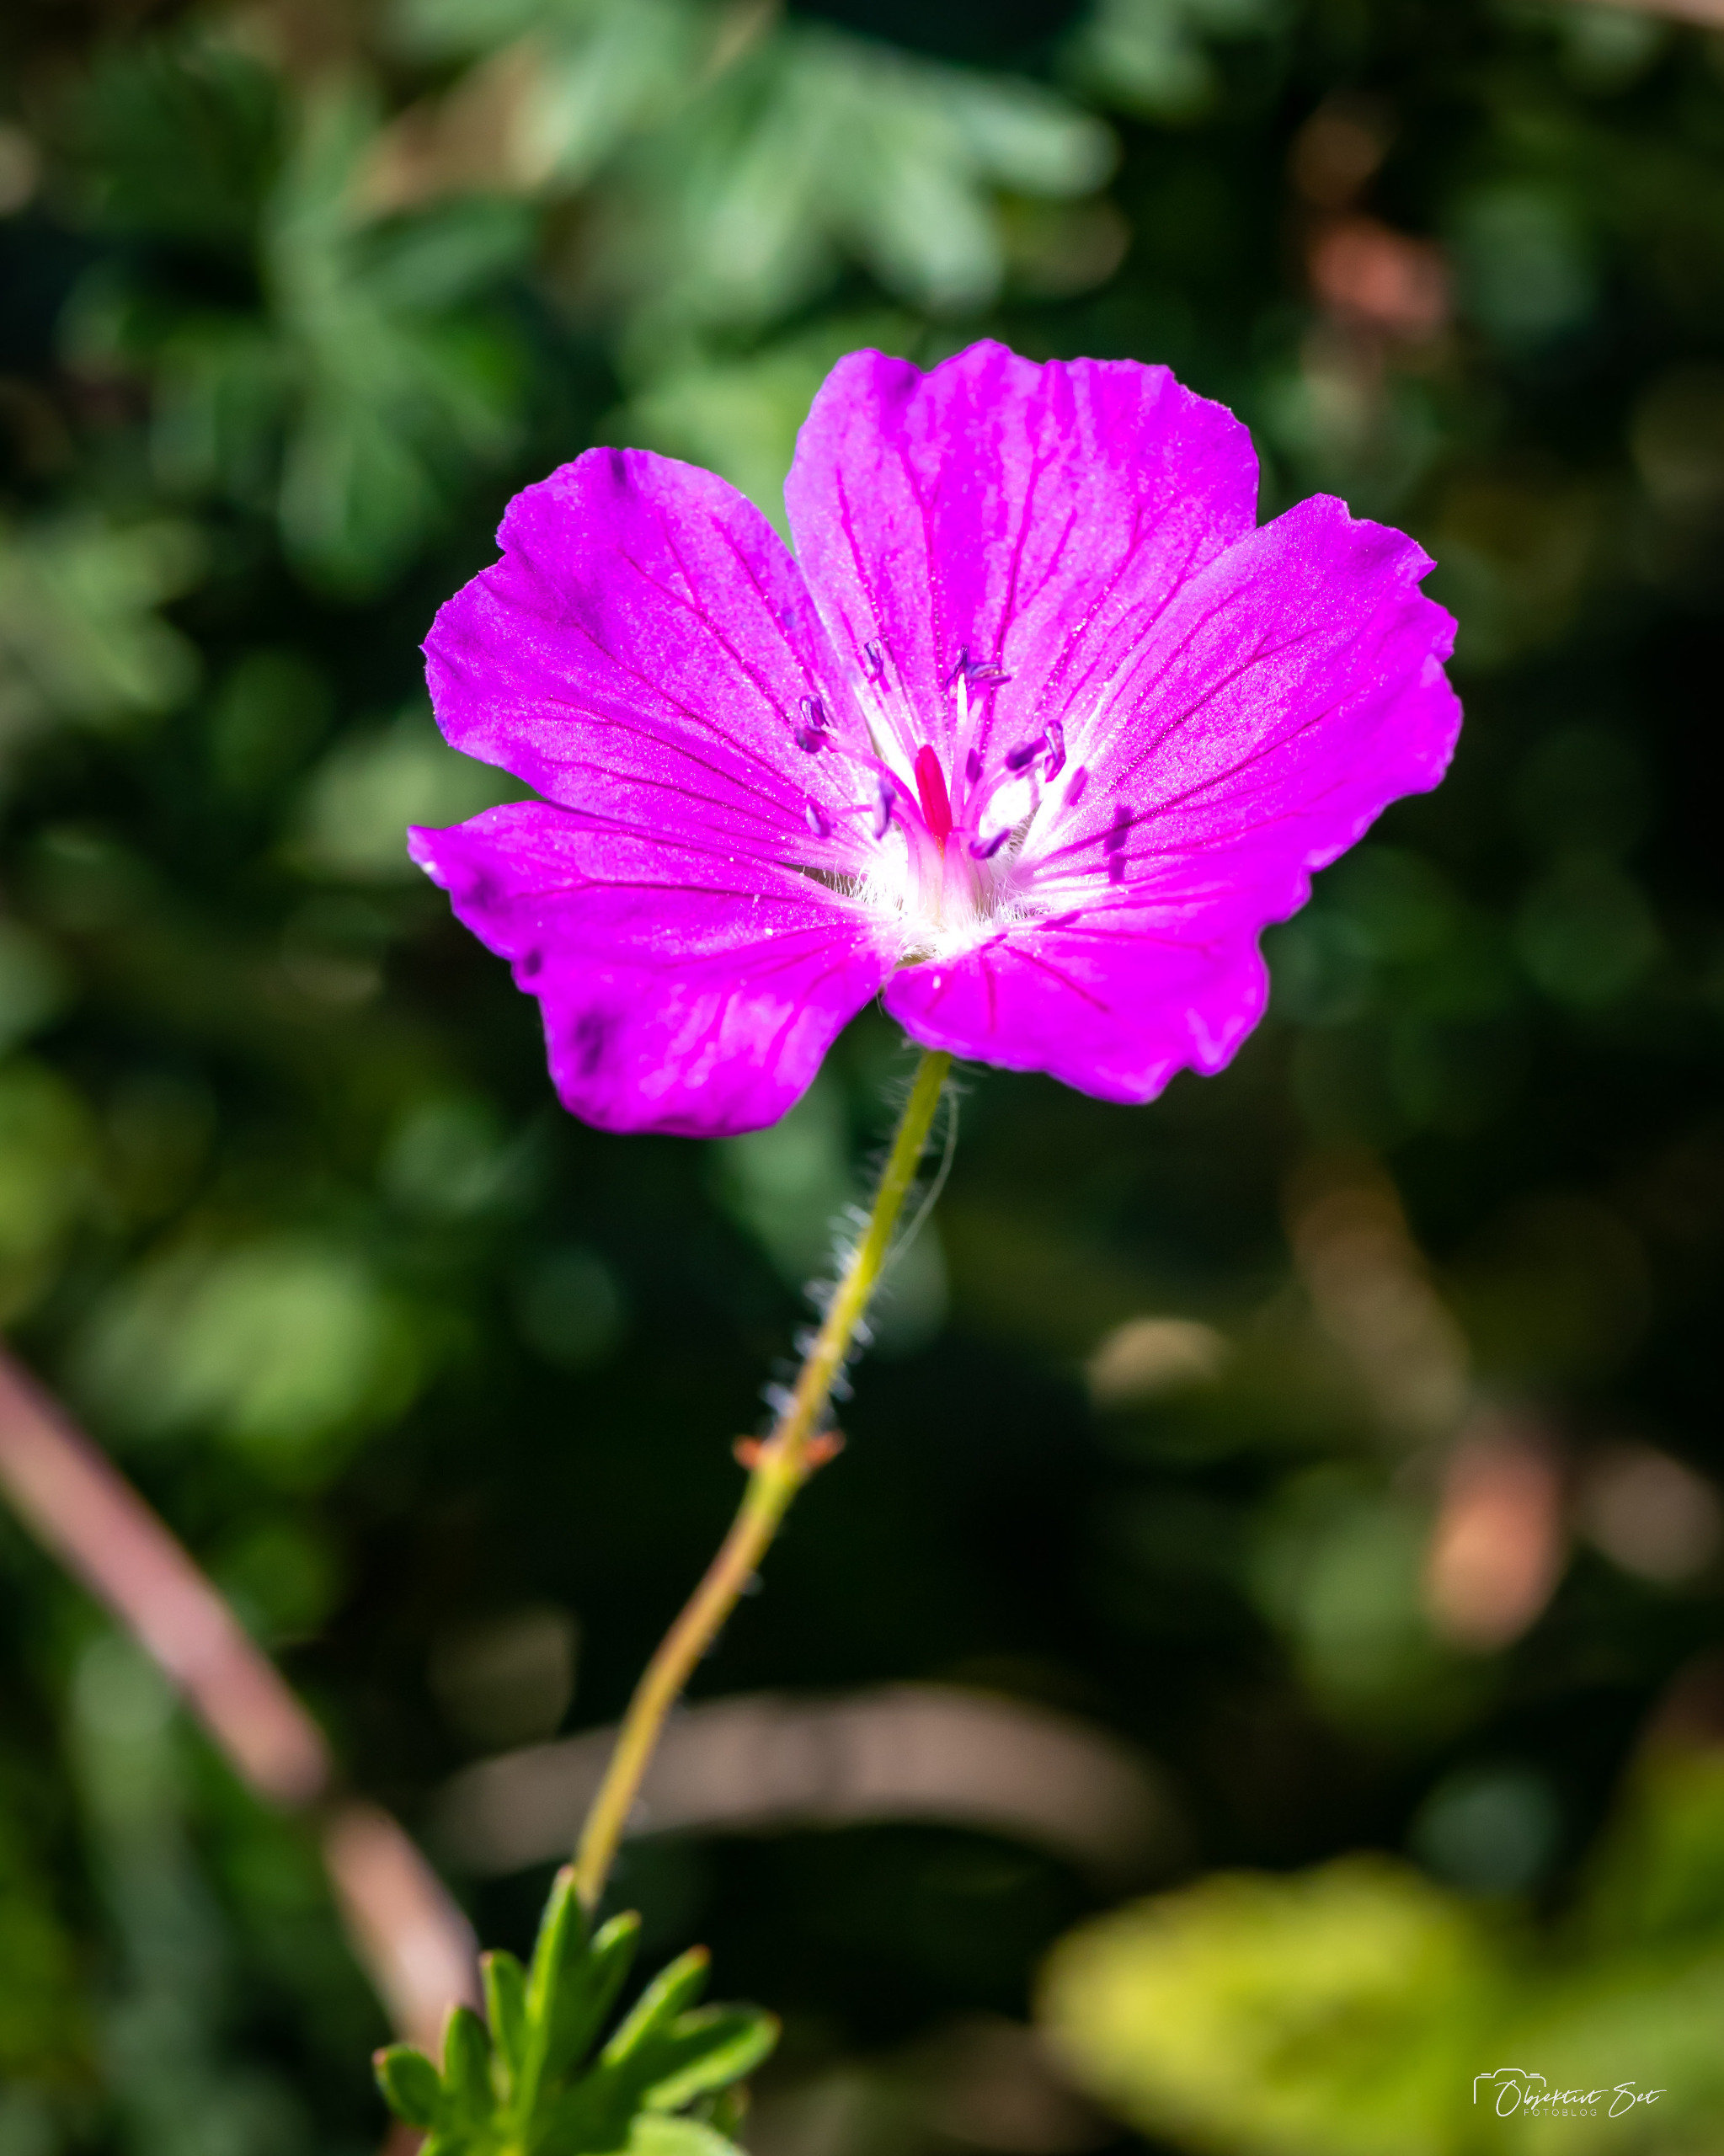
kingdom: Plantae
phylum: Tracheophyta
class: Magnoliopsida
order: Geraniales
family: Geraniaceae
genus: Geranium
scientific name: Geranium sanguineum
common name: Blodrød storkenæb
